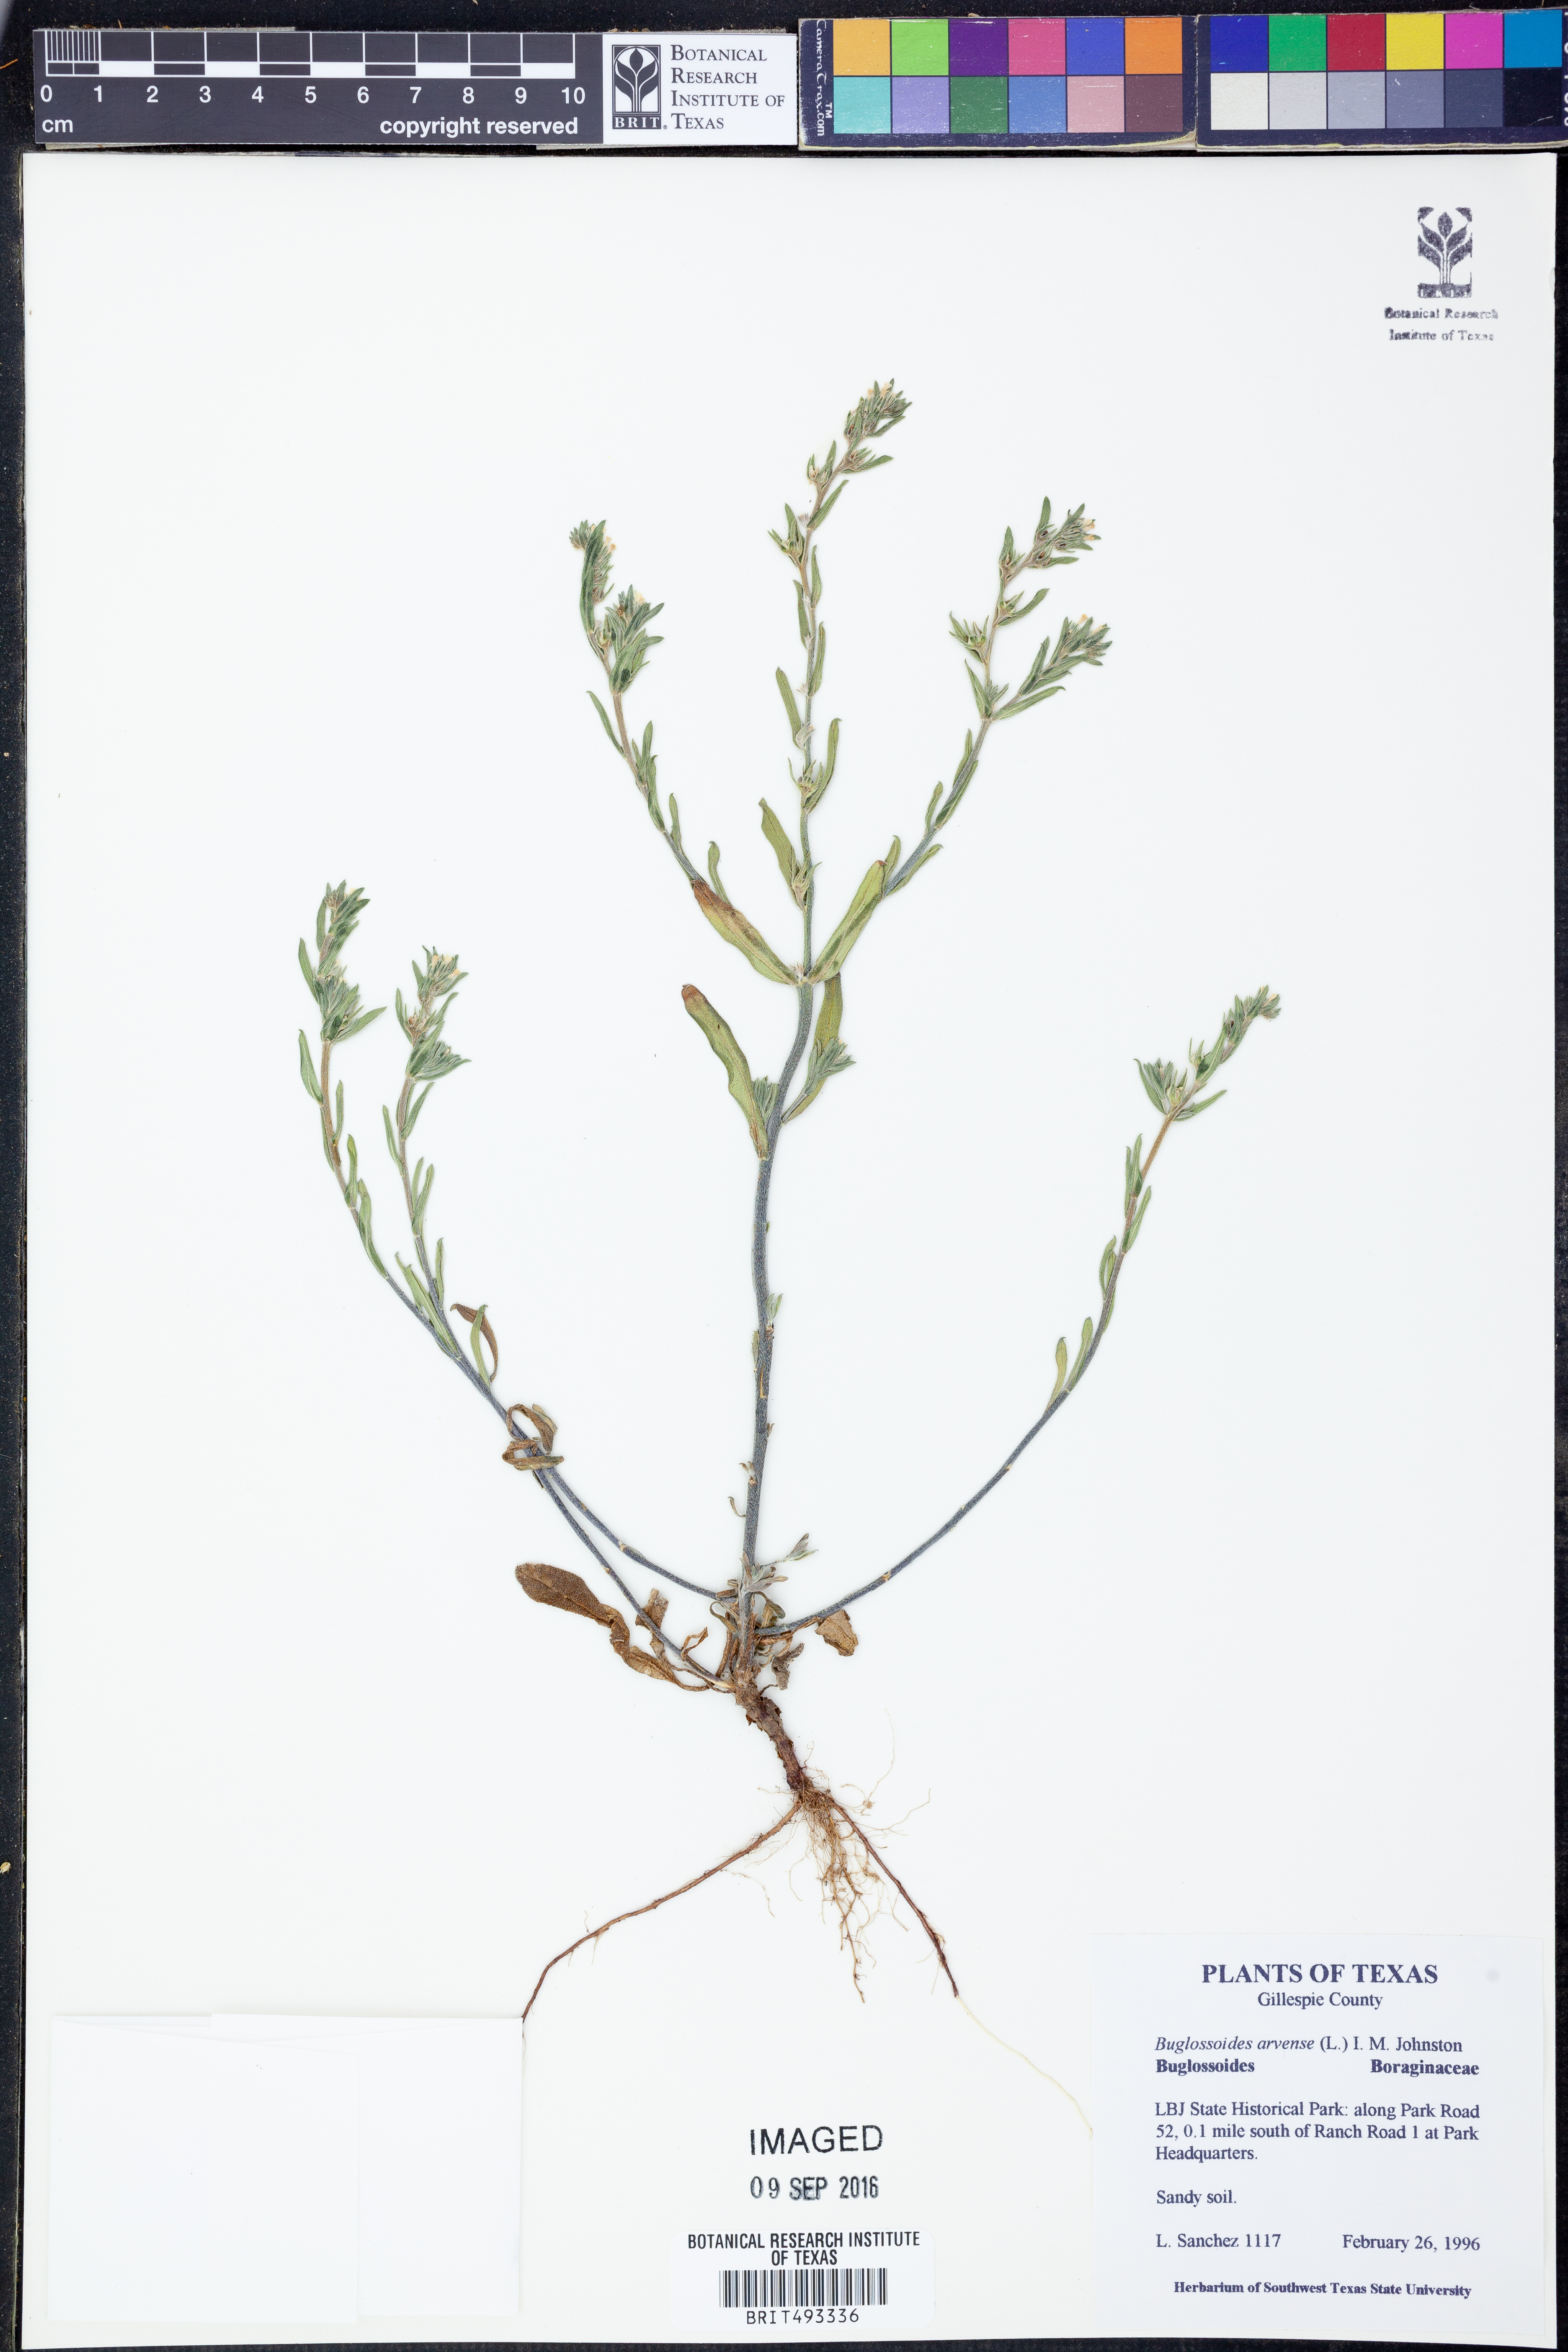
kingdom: Plantae
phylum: Tracheophyta
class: Magnoliopsida
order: Boraginales
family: Boraginaceae
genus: Buglossoides
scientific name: Buglossoides arvensis
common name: Corn gromwell
